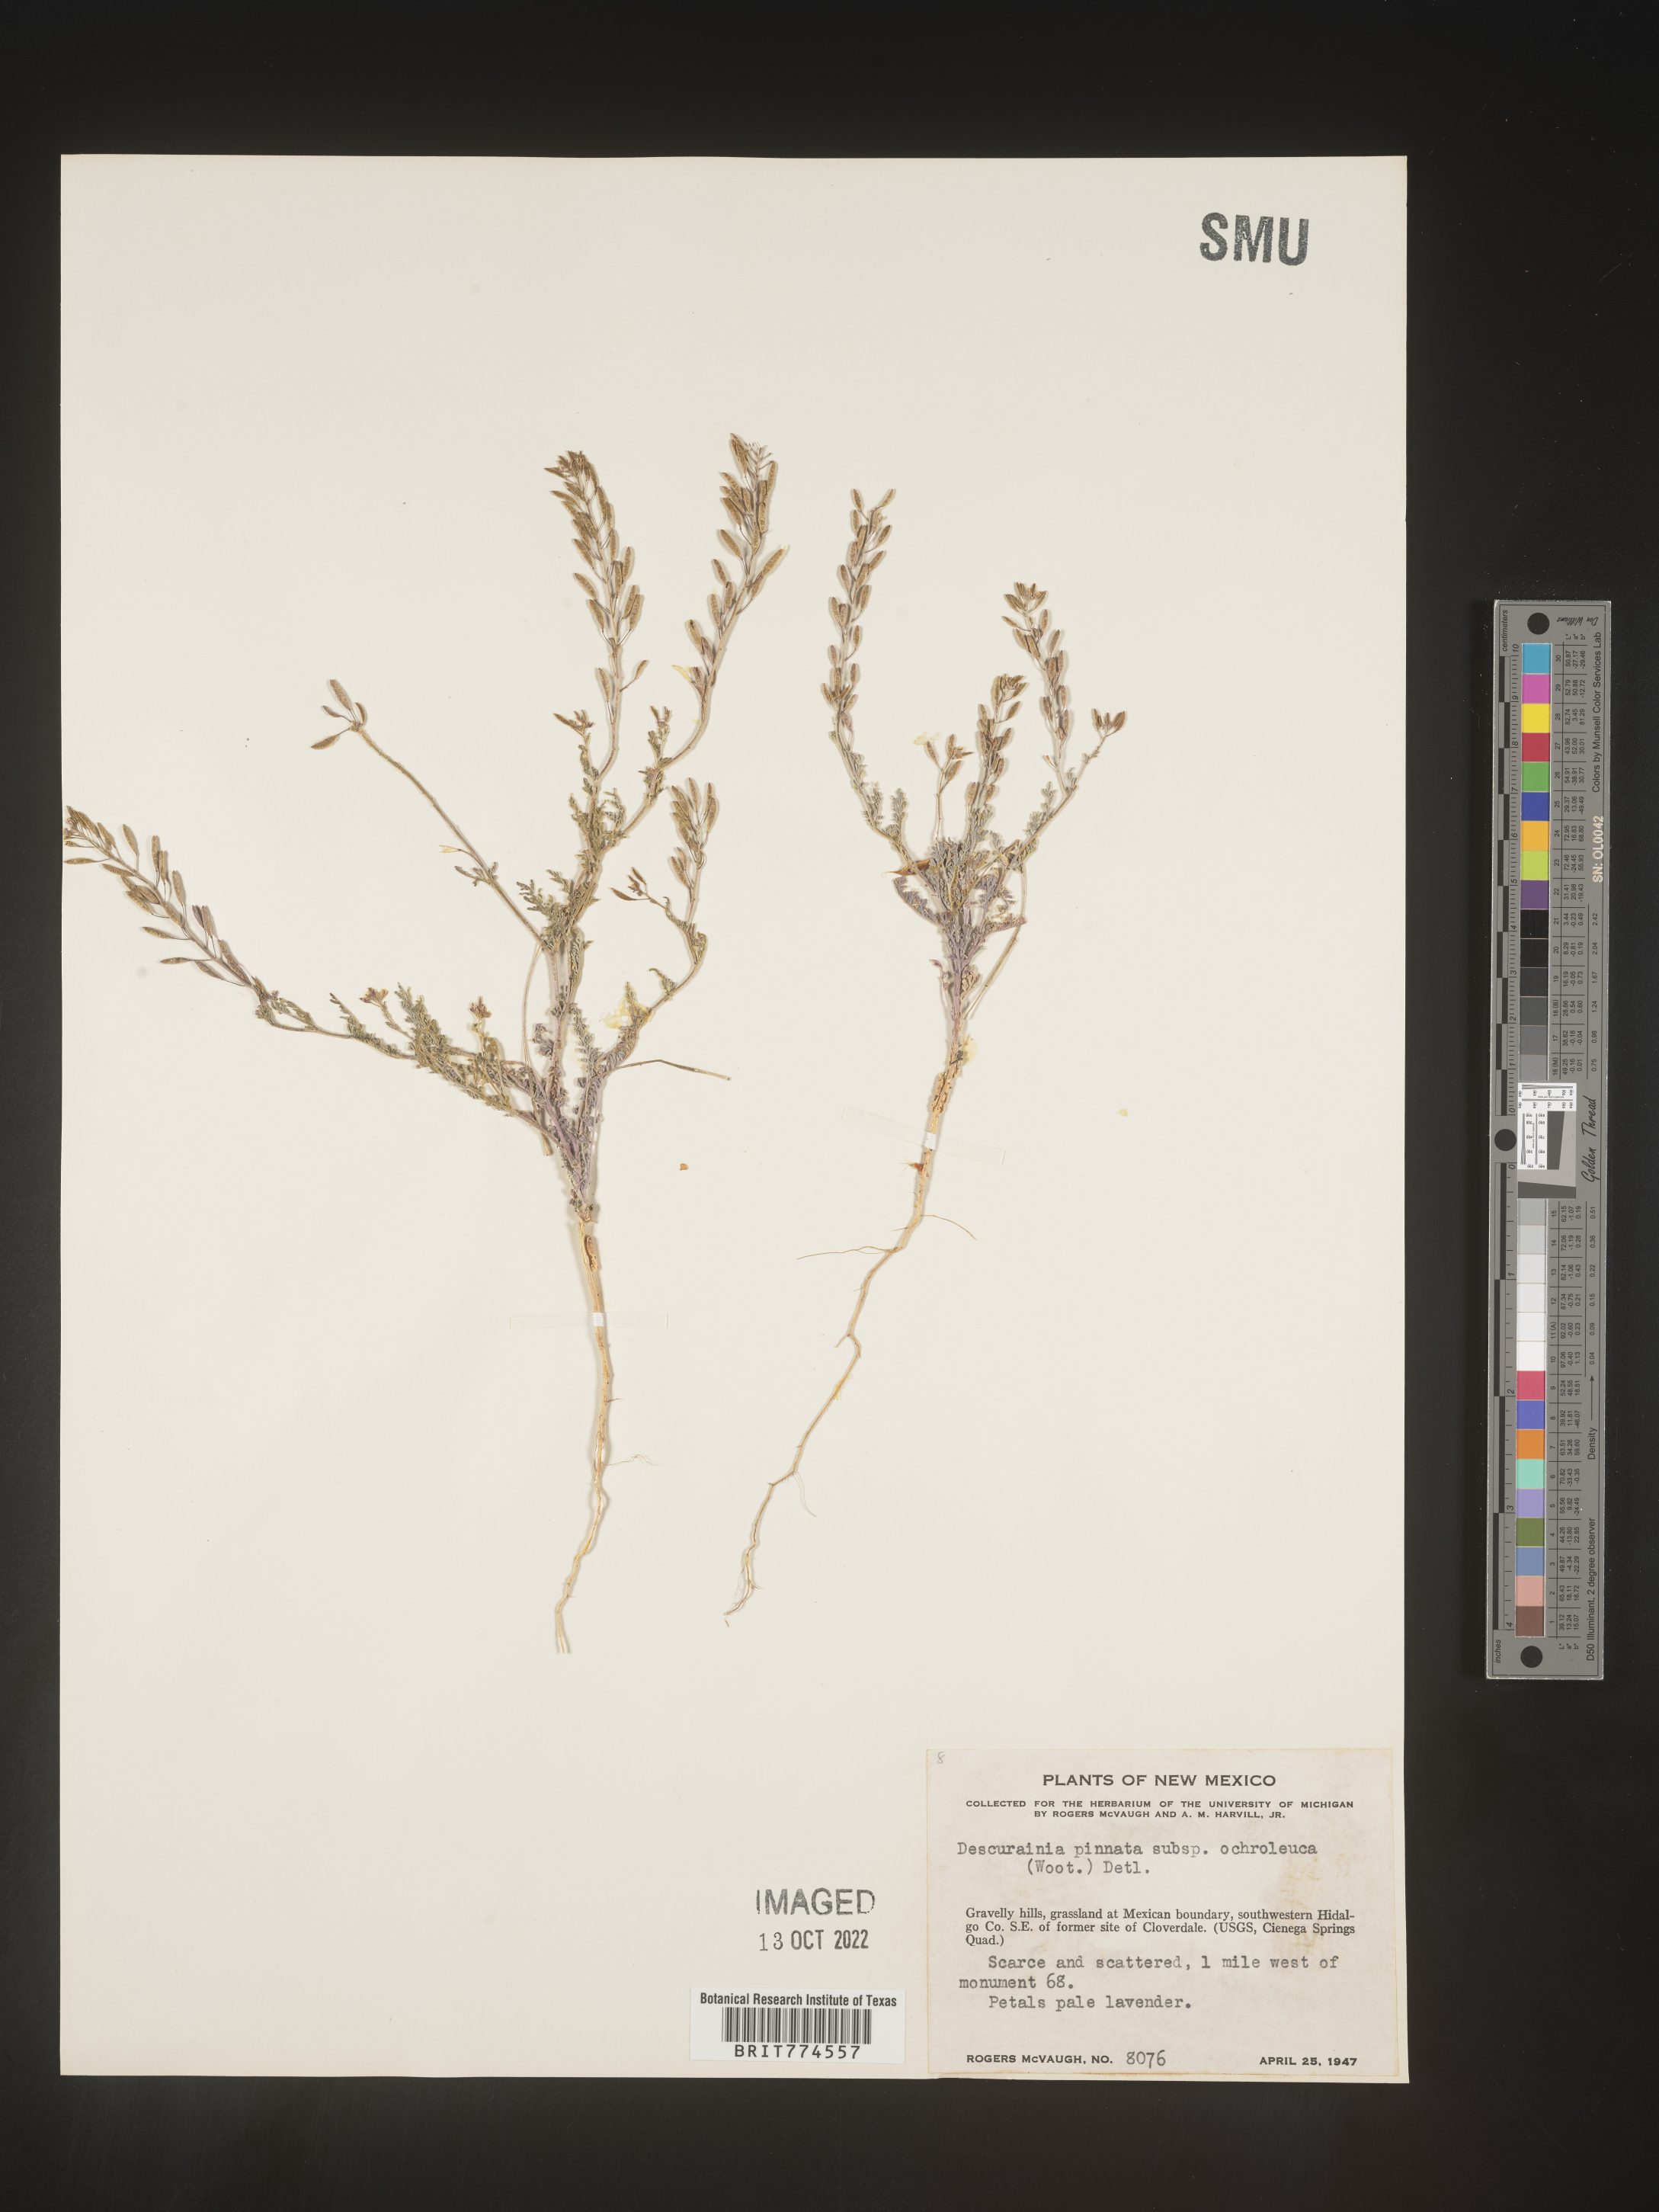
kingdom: Plantae
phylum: Tracheophyta
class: Magnoliopsida
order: Brassicales
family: Brassicaceae
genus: Descurainia
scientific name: Descurainia pinnata
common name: Western tansy mustard
